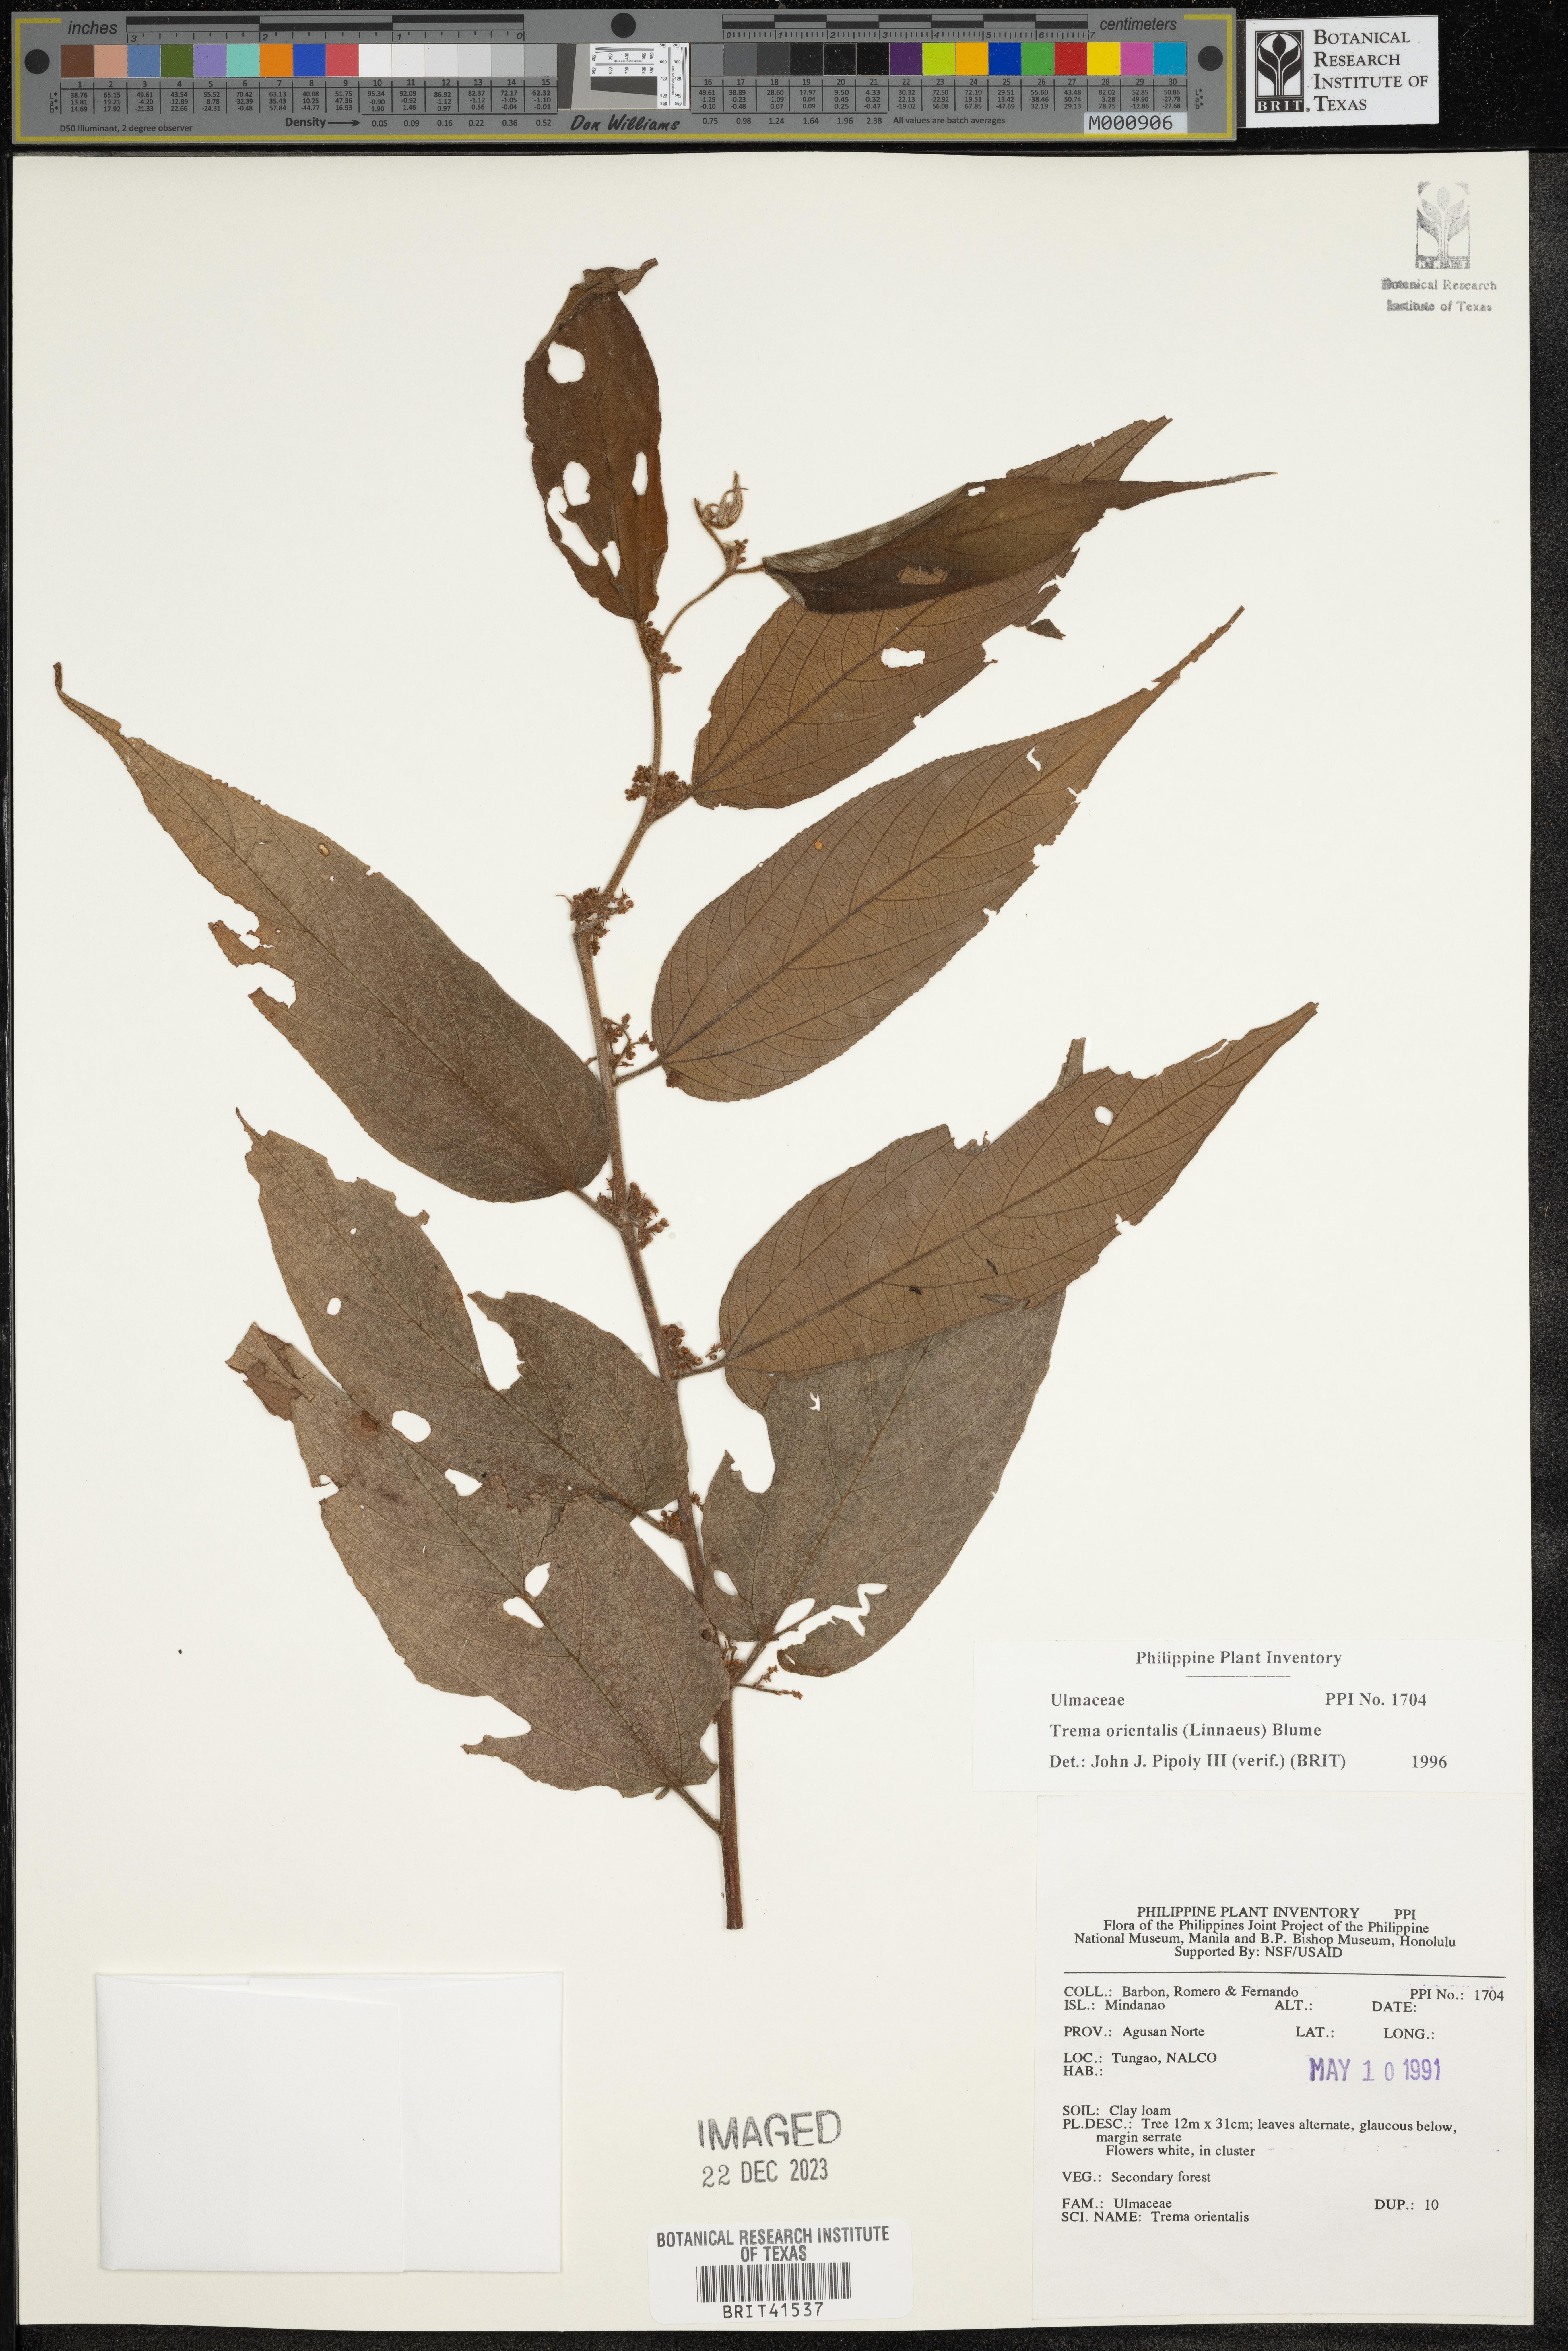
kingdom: Plantae
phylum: Tracheophyta
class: Magnoliopsida
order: Rosales
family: Cannabaceae
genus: Trema
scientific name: Trema orientale
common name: Indian charcoal tree
